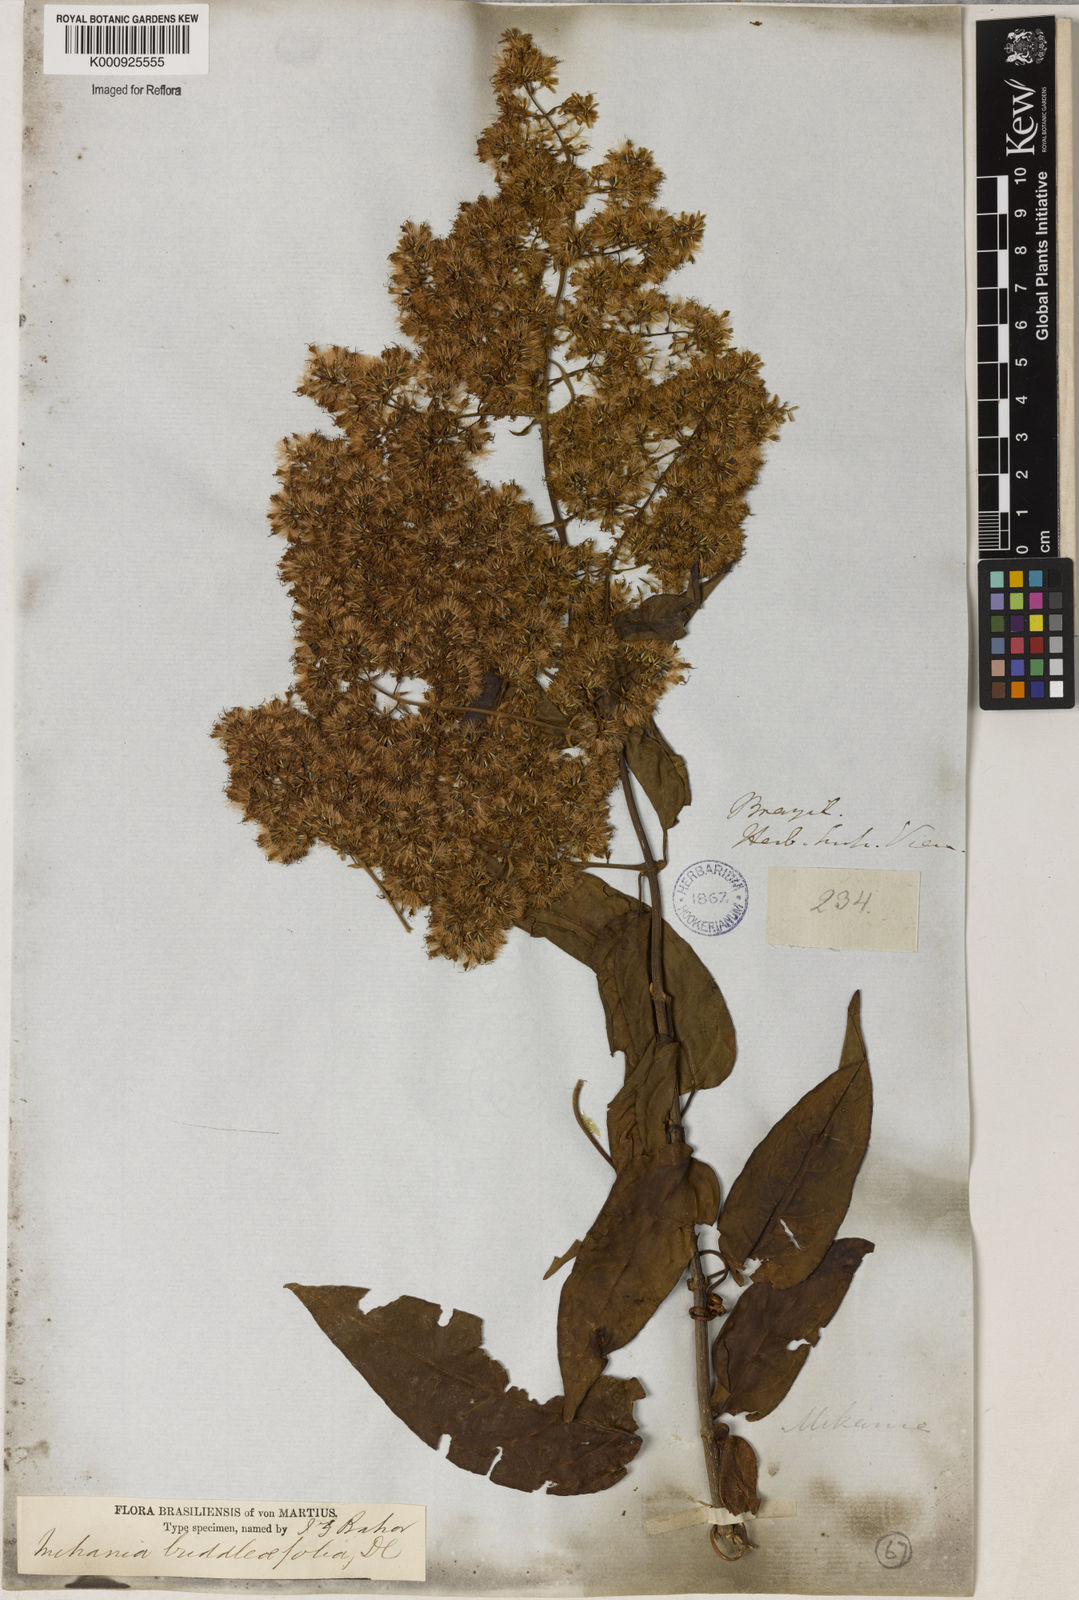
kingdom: Plantae
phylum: Tracheophyta
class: Magnoliopsida
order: Asterales
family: Asteraceae
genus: Mikania
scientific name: Mikania buddlejifolia
